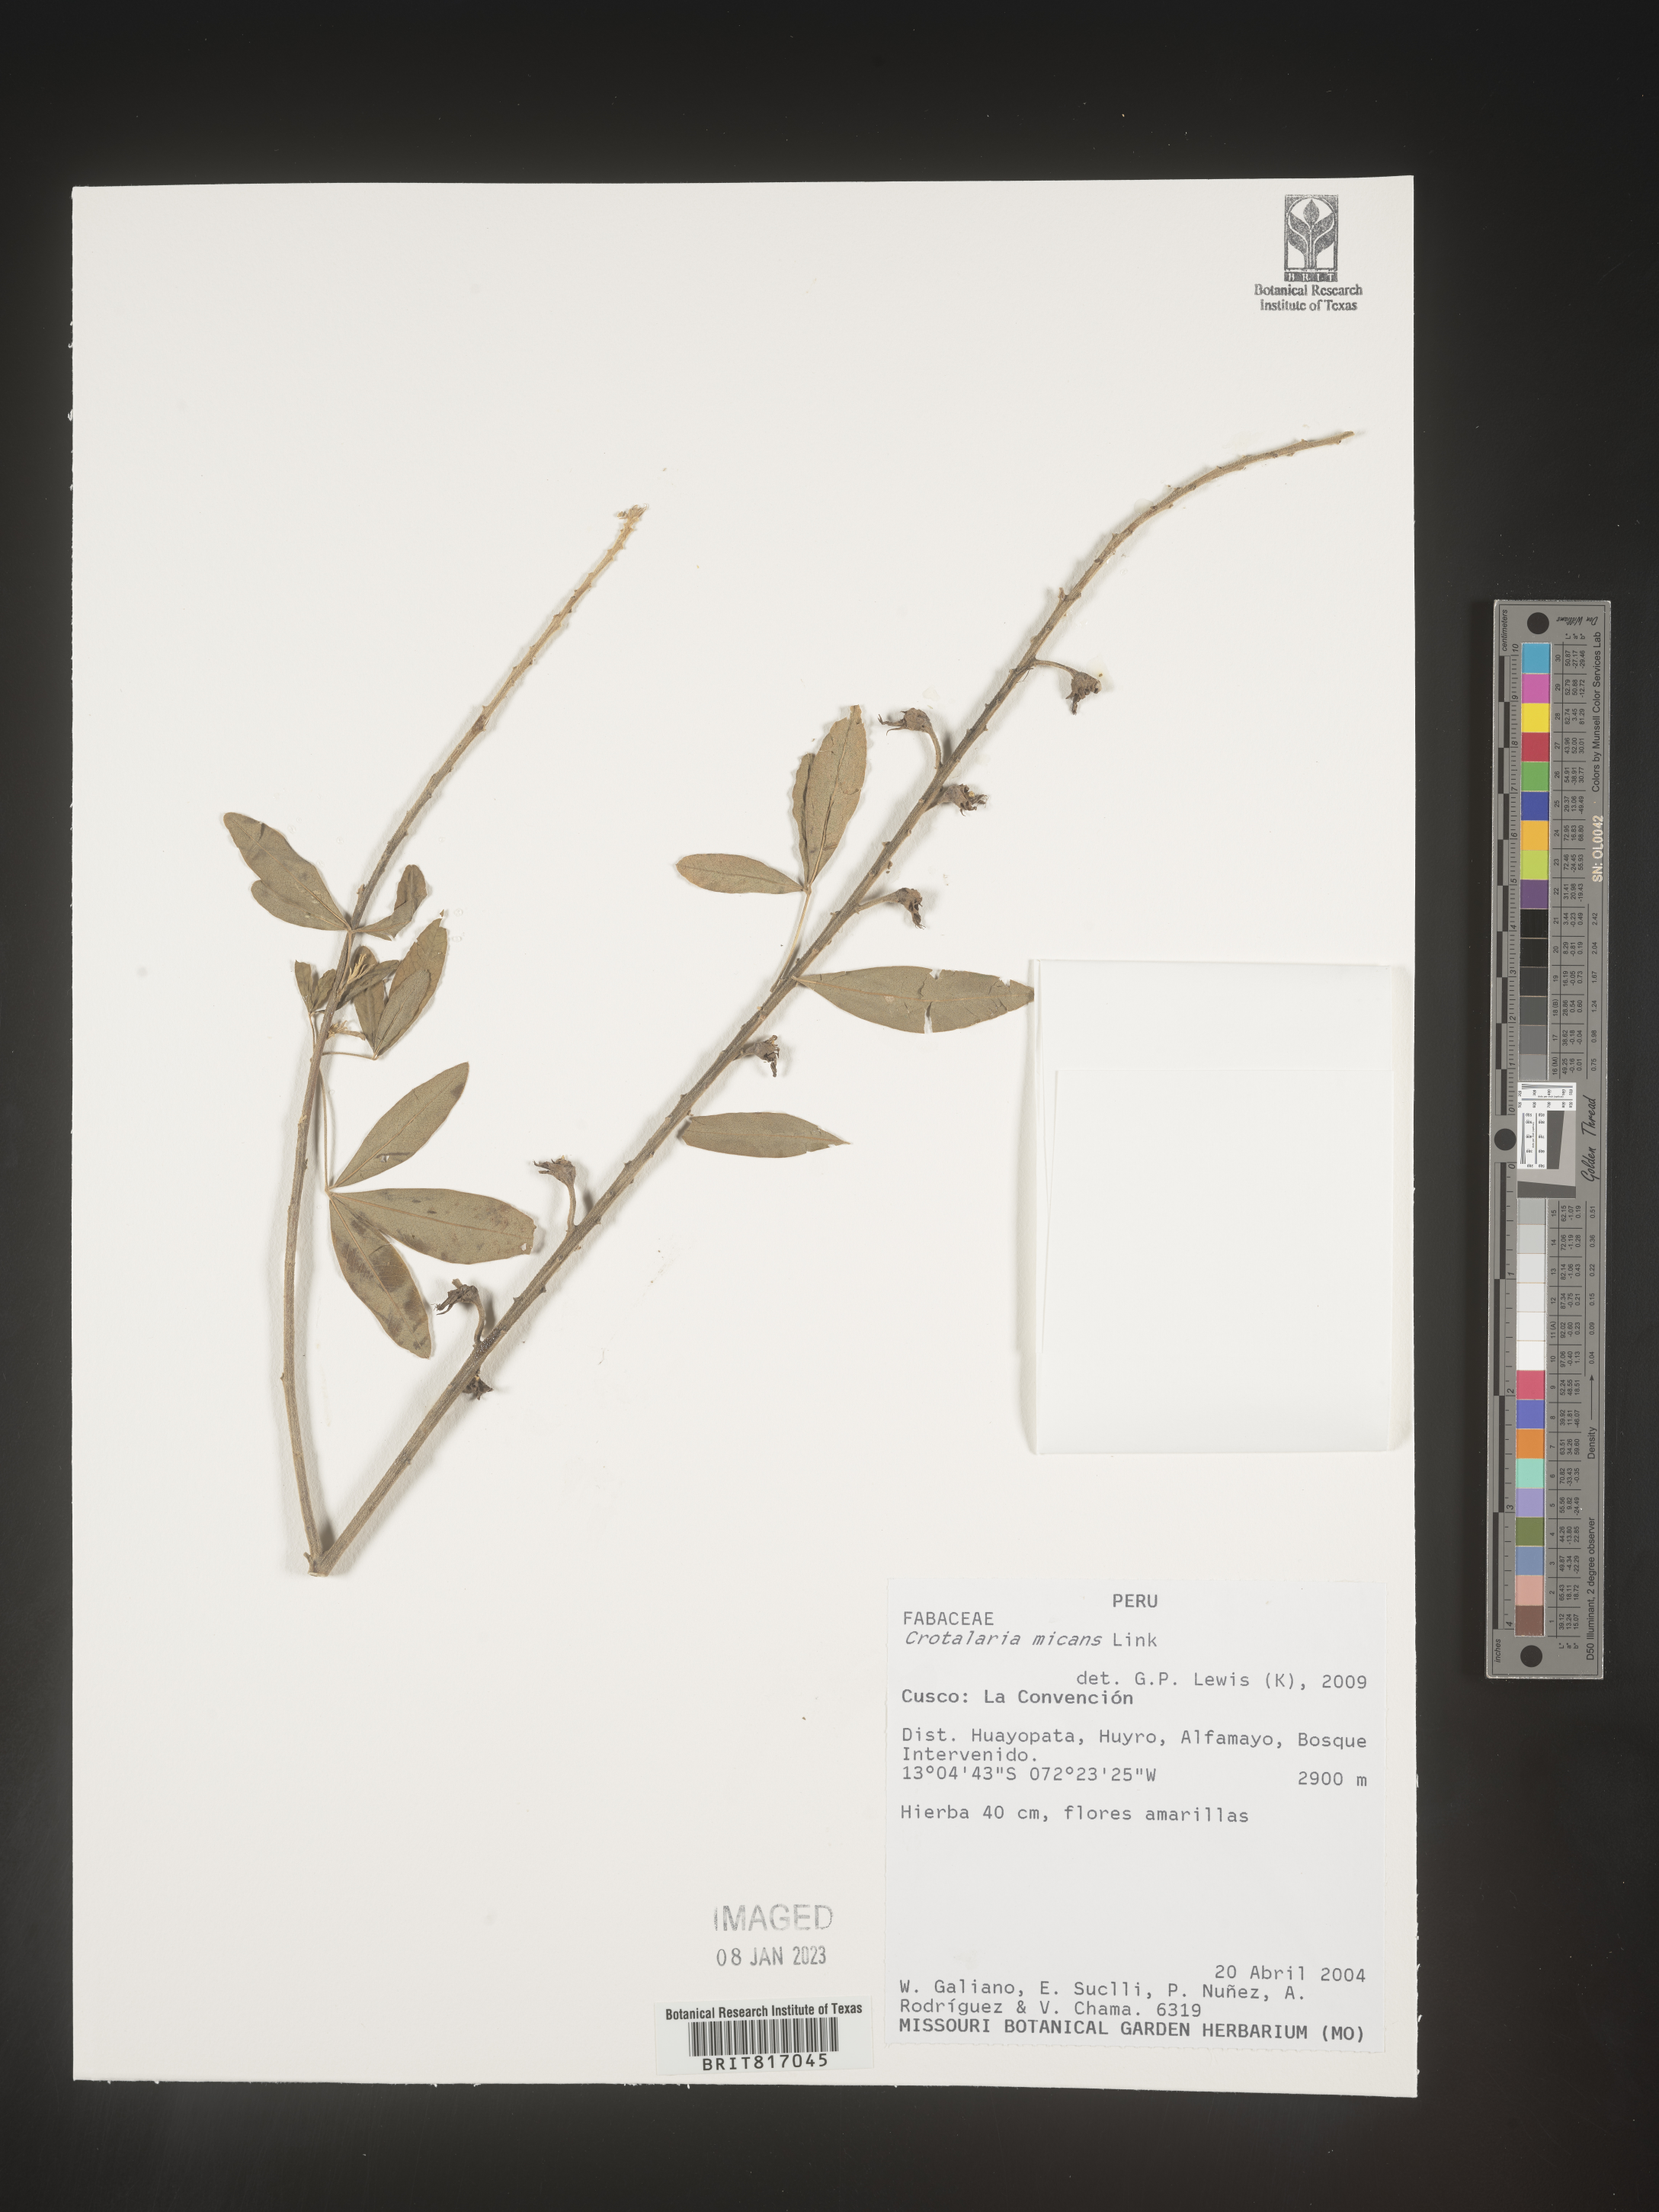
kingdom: Plantae
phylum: Tracheophyta
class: Magnoliopsida
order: Fabales
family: Fabaceae
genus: Crotalaria
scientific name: Crotalaria
